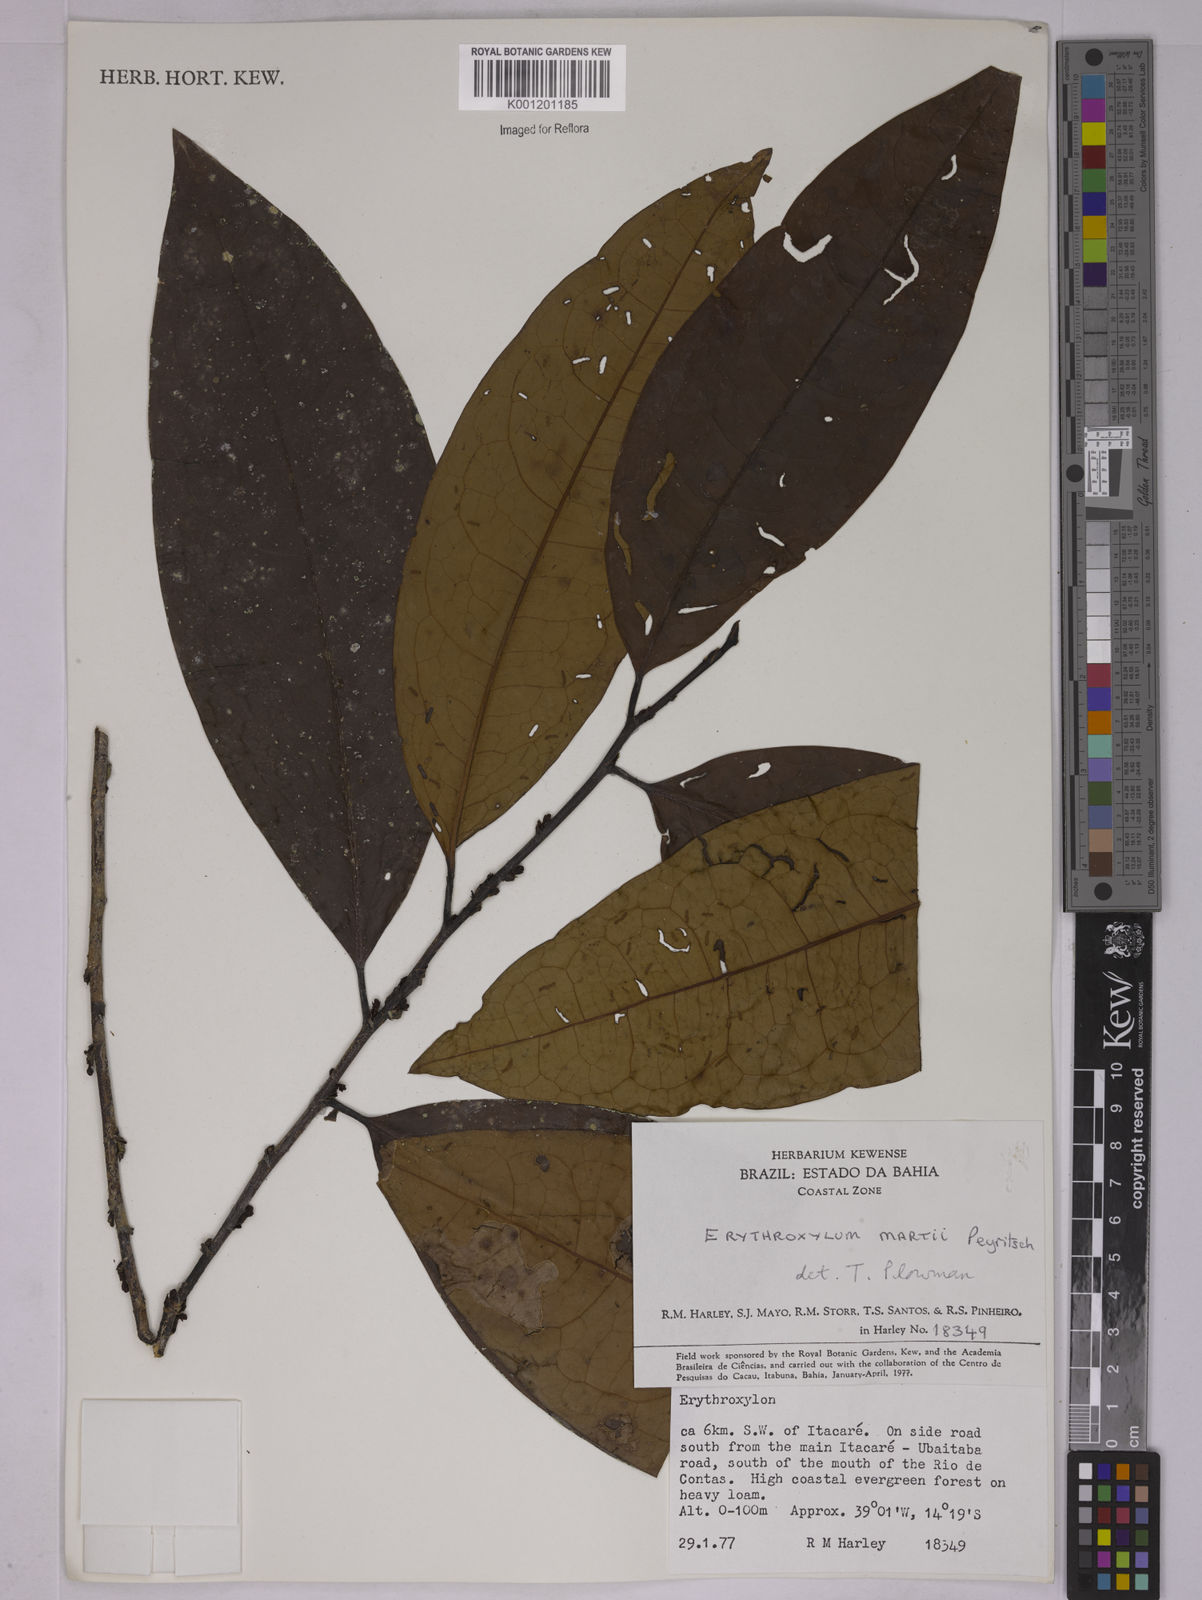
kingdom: Plantae
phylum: Tracheophyta
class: Magnoliopsida
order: Malpighiales
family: Erythroxylaceae
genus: Erythroxylum
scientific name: Erythroxylum martii
